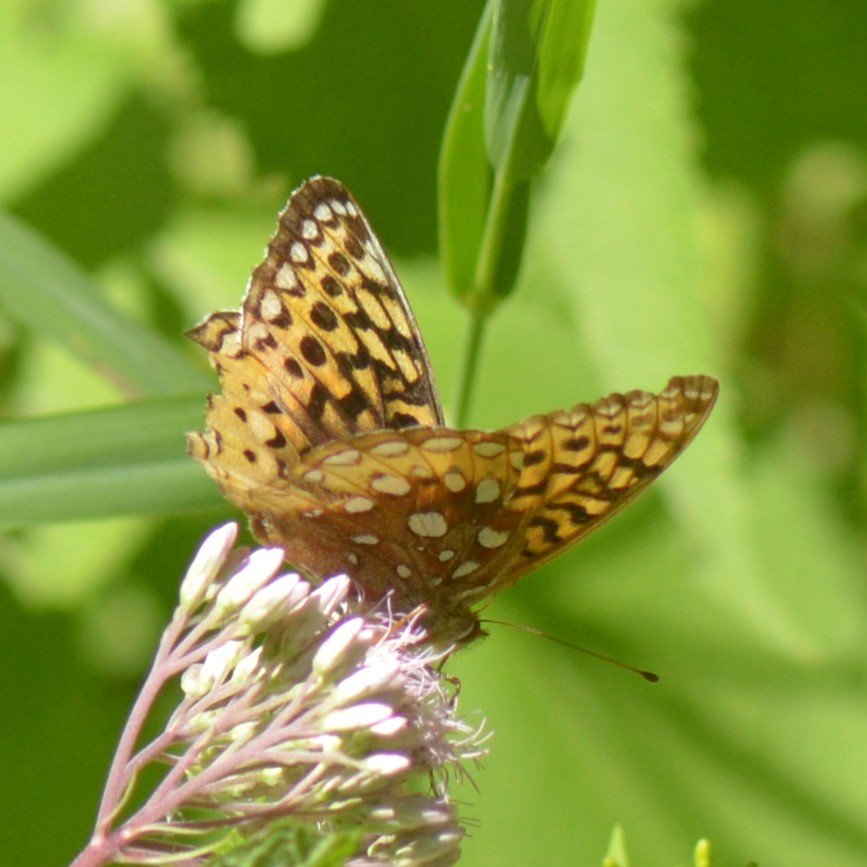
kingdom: Animalia
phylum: Arthropoda
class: Insecta
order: Lepidoptera
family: Nymphalidae
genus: Speyeria
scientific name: Speyeria cybele
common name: Great Spangled Fritillary
